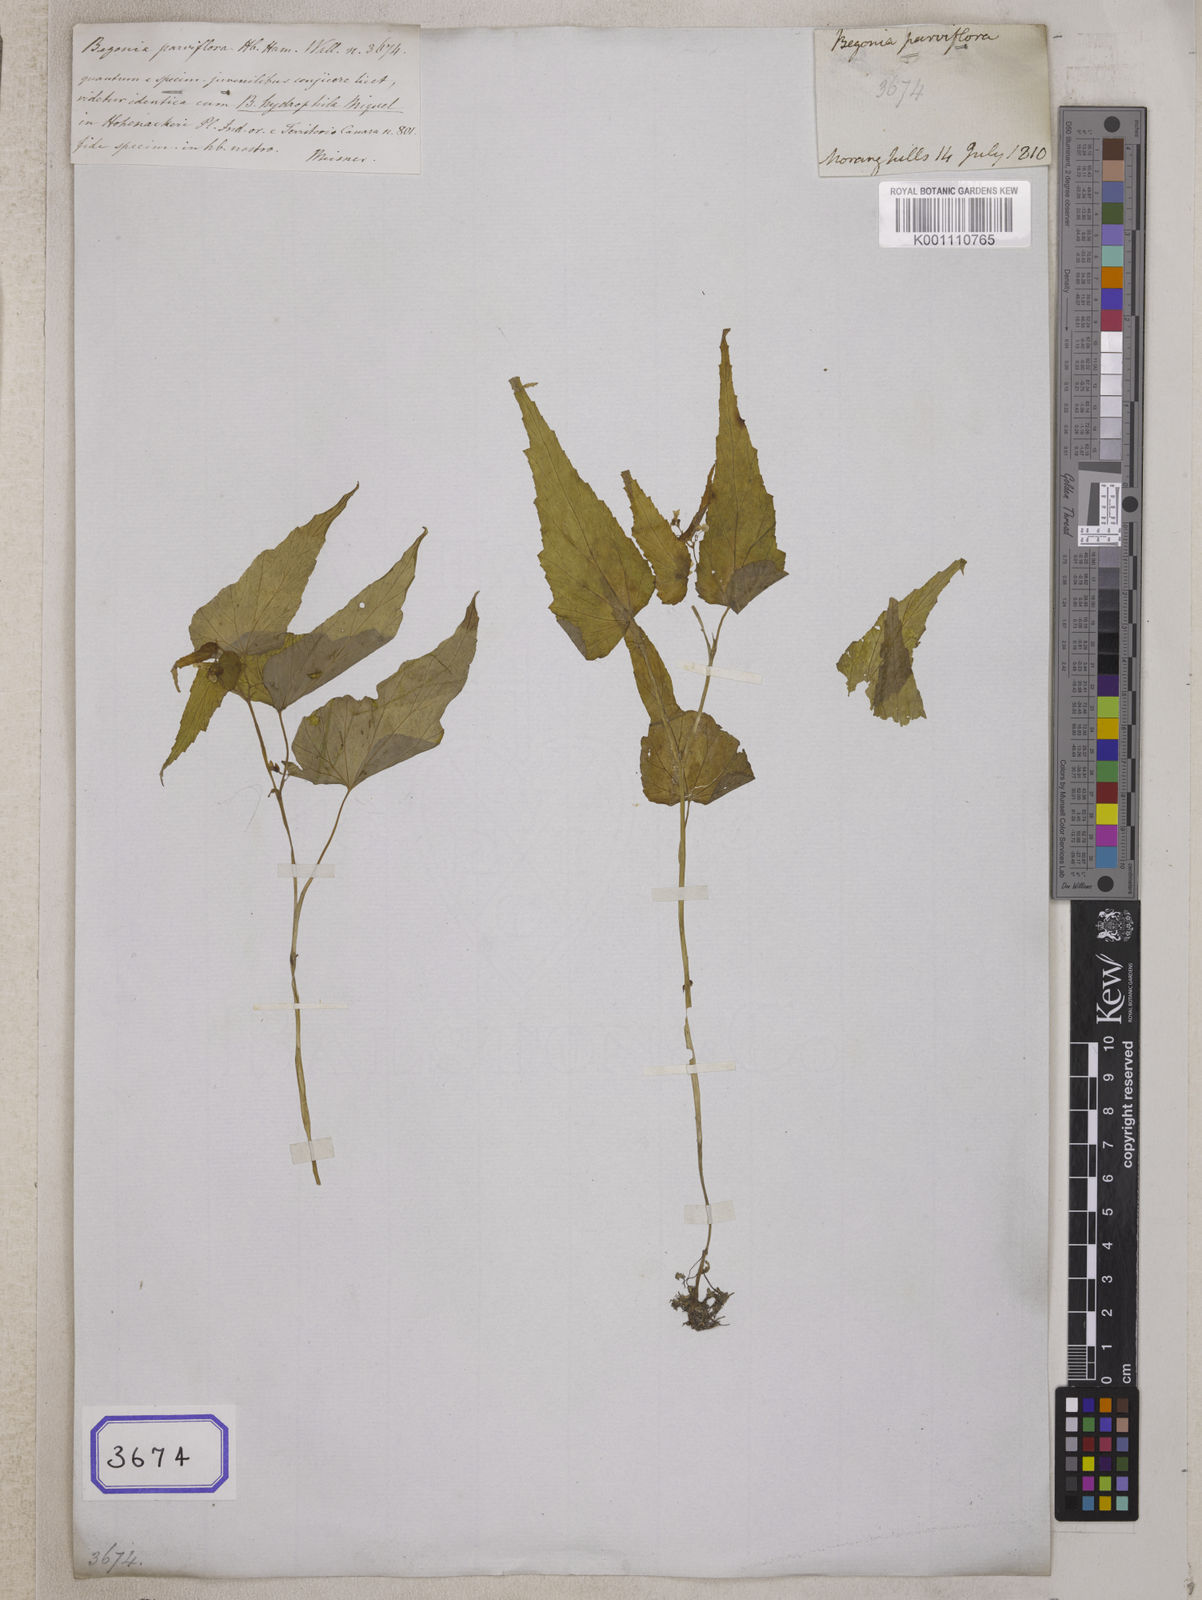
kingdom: Plantae
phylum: Tracheophyta
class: Magnoliopsida
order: Cucurbitales
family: Begoniaceae
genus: Begonia
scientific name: Begonia
